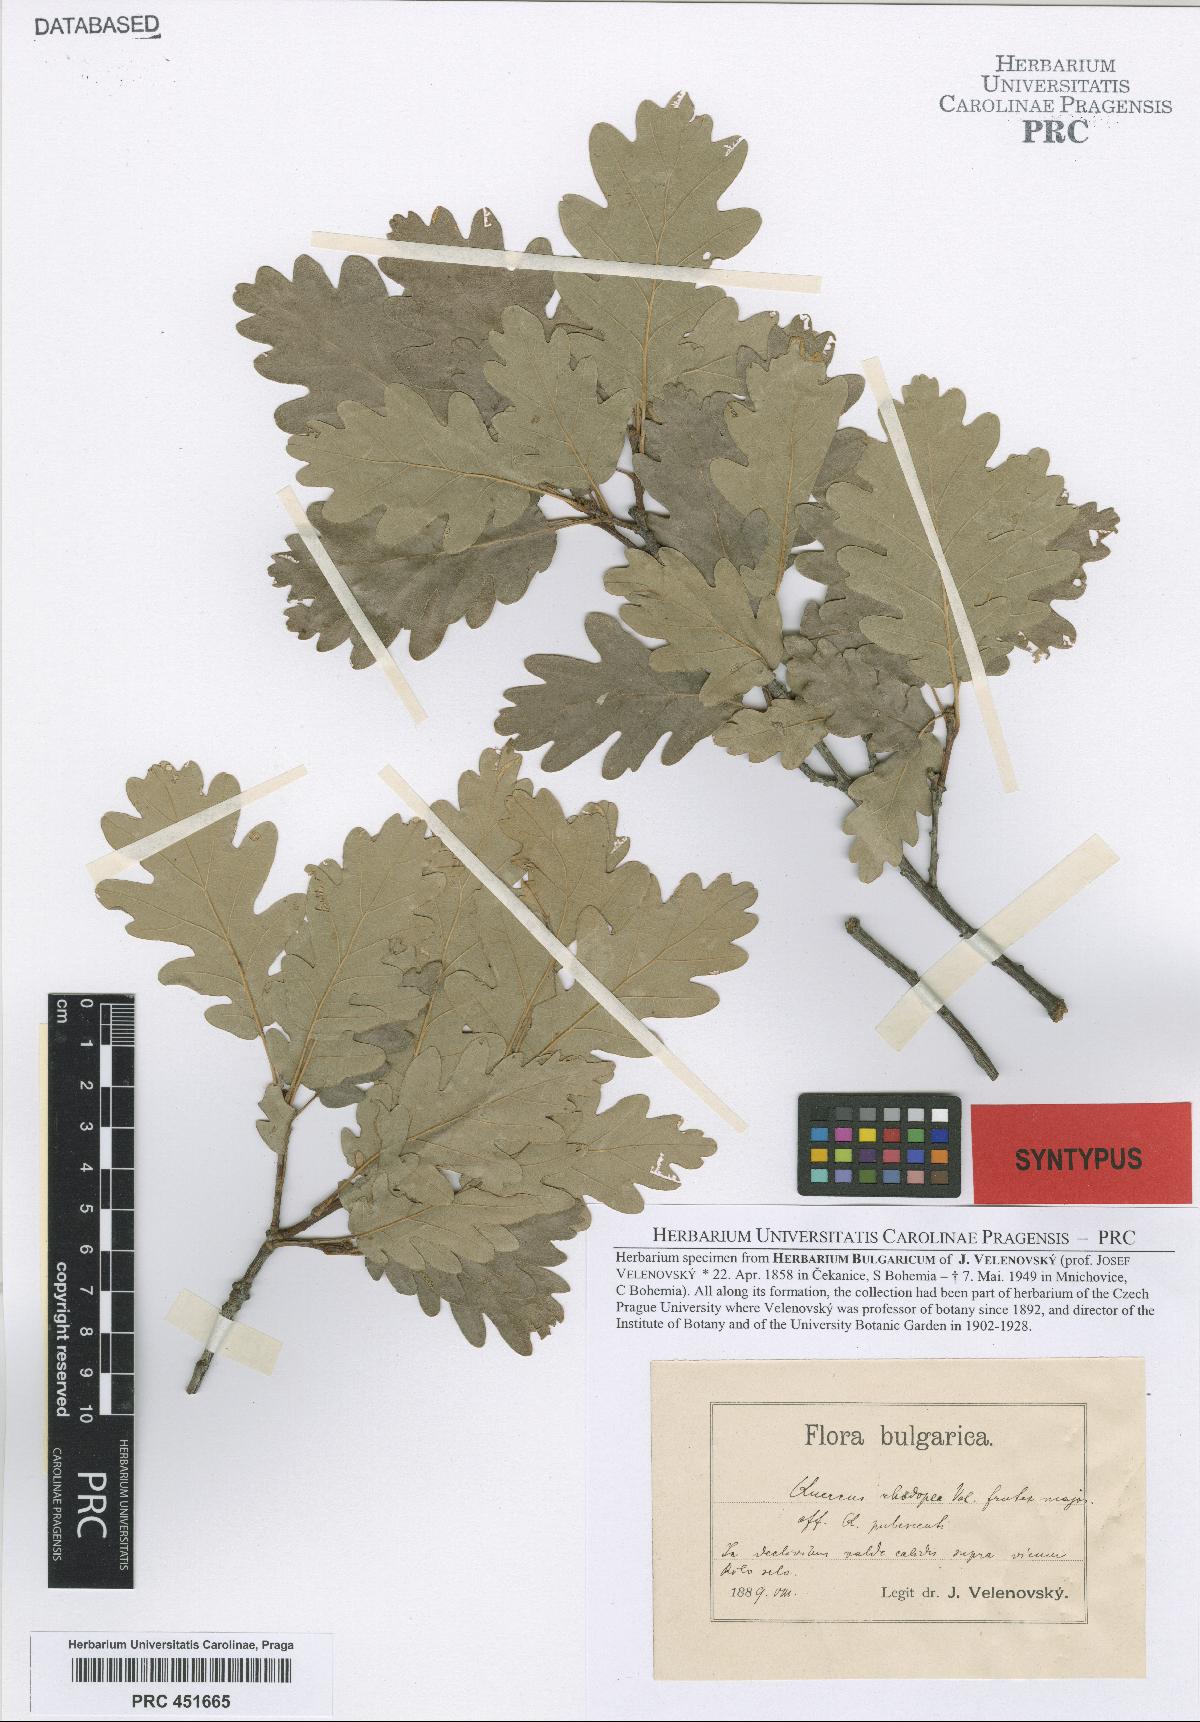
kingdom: Plantae
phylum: Tracheophyta
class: Magnoliopsida
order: Fagales
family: Fagaceae
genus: Quercus
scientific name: Quercus rhodopea
